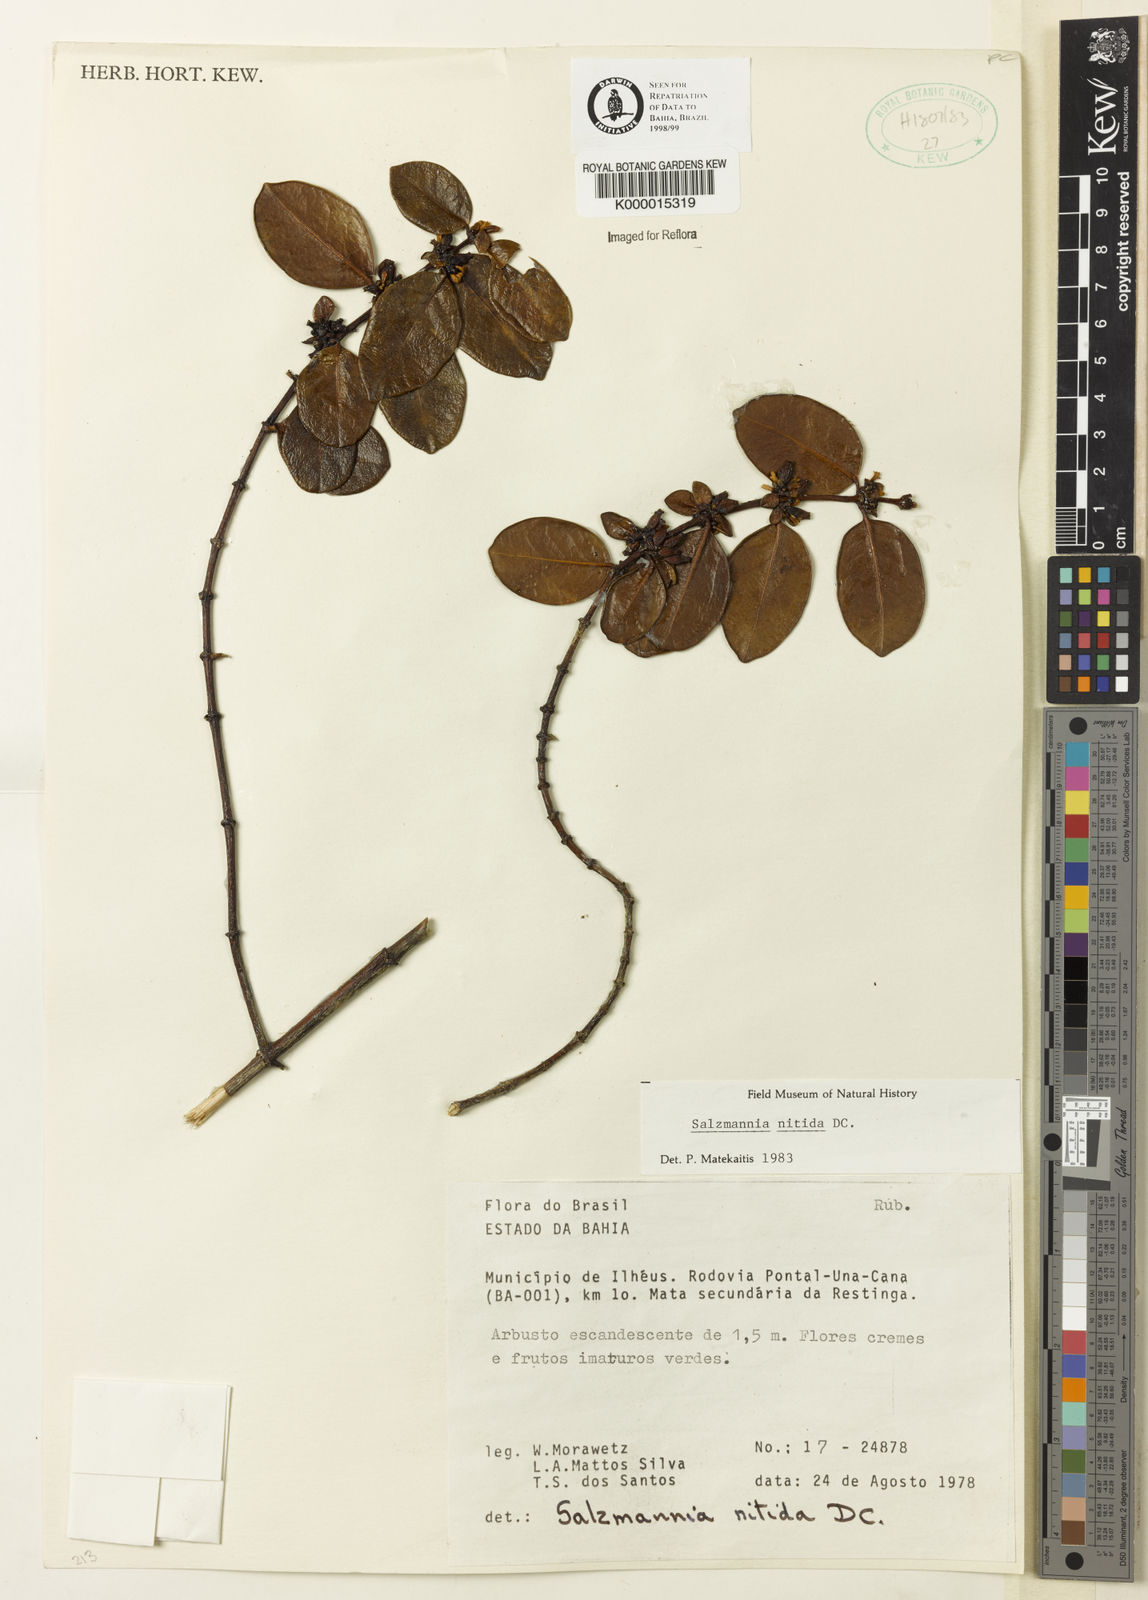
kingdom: Plantae
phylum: Tracheophyta
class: Magnoliopsida
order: Gentianales
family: Rubiaceae
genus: Salzmannia
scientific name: Salzmannia nitida
